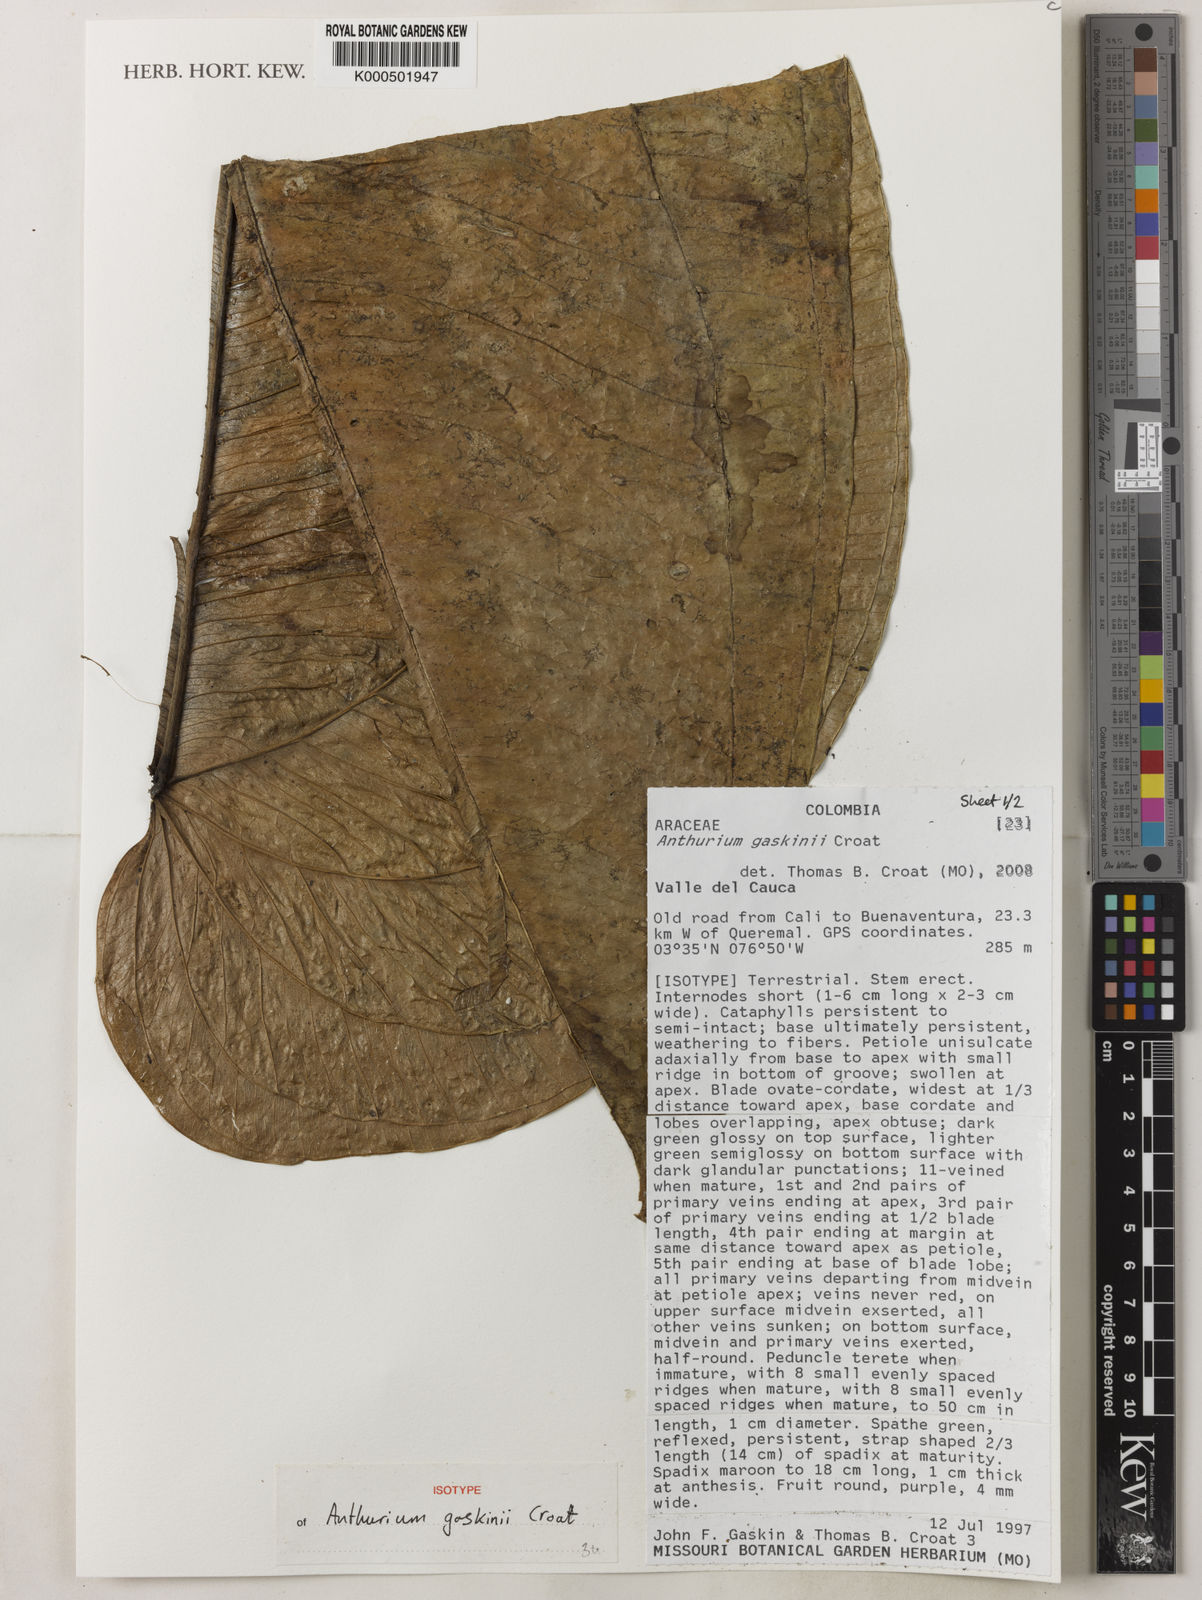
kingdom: Plantae
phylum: Tracheophyta
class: Liliopsida
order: Alismatales
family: Araceae
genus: Anthurium
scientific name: Anthurium gaskinii
